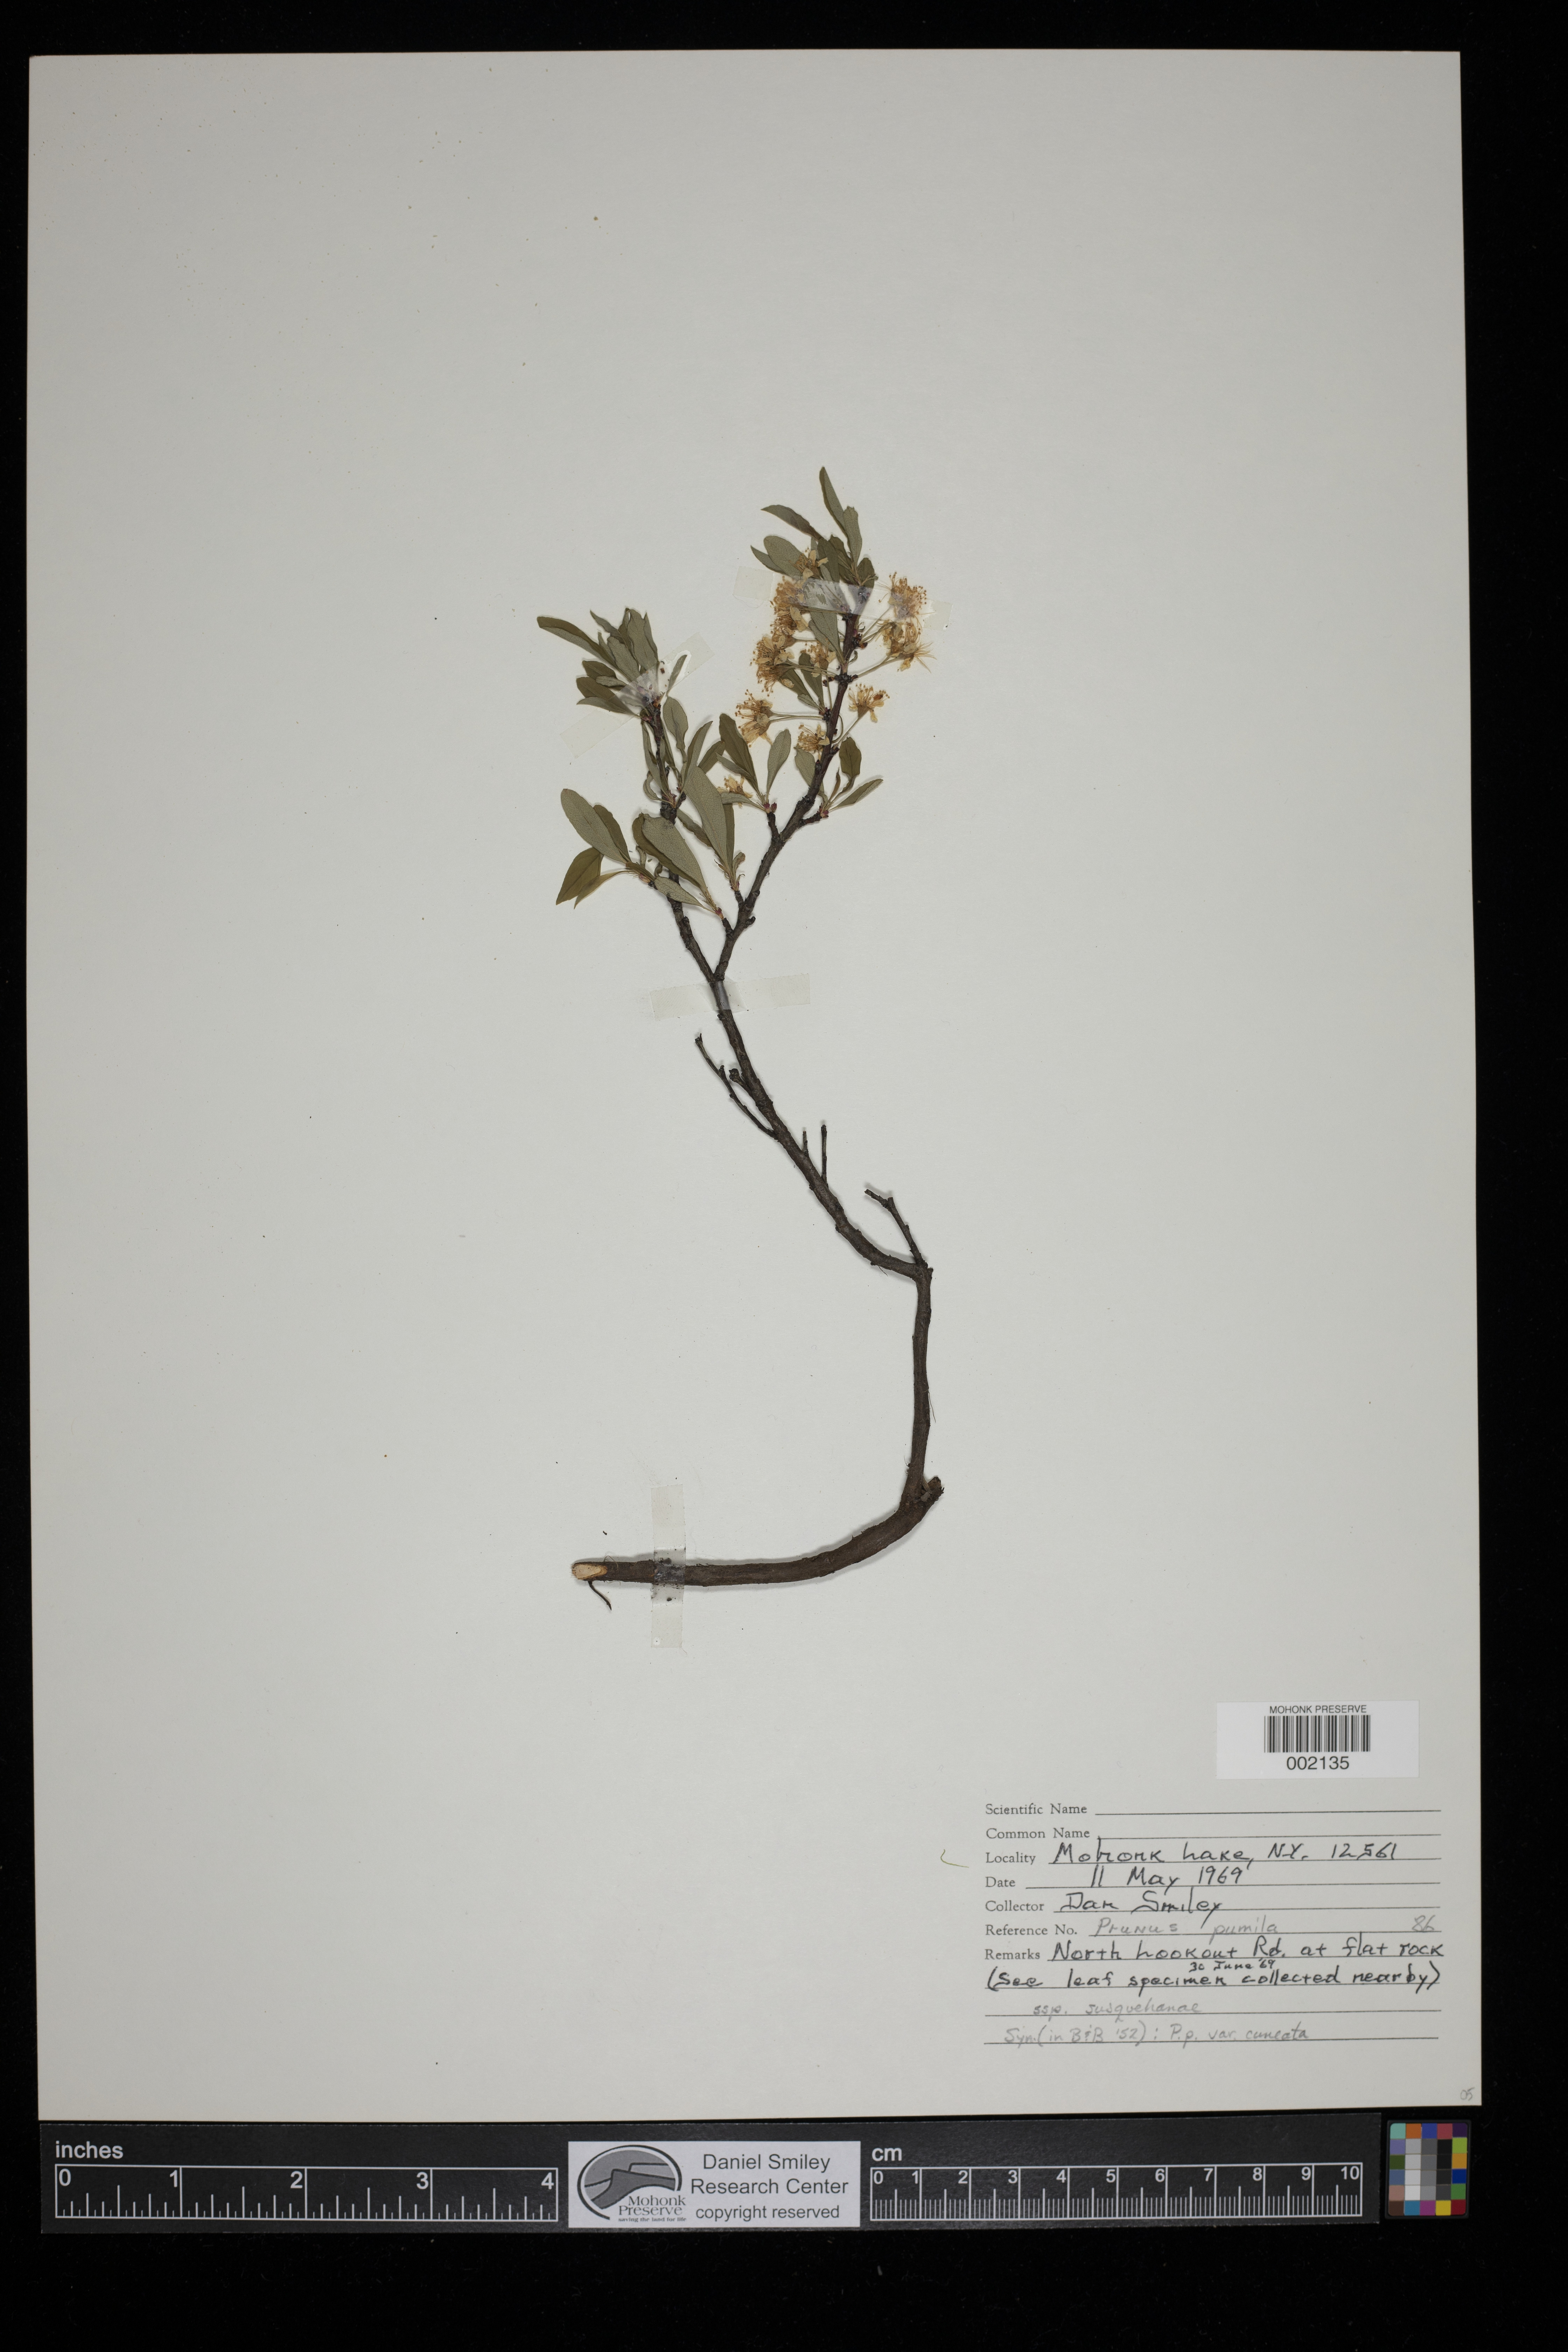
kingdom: Plantae
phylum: Tracheophyta
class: Magnoliopsida
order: Rosales
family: Rosaceae
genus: Prunus
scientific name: Prunus pumila
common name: Dwarf cherry
